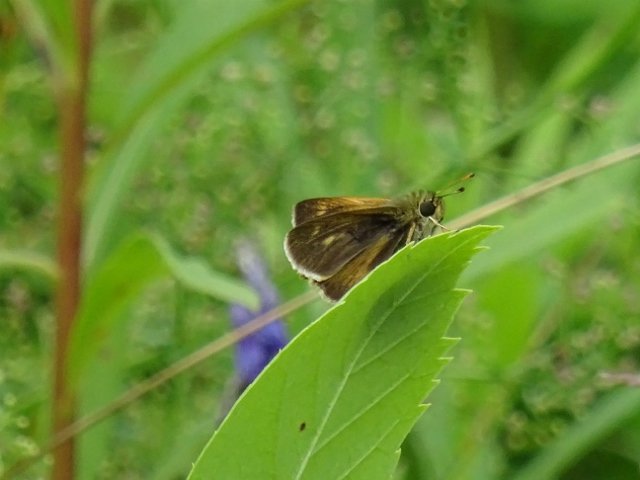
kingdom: Animalia
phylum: Arthropoda
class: Insecta
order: Lepidoptera
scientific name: Lepidoptera
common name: Butterflies
